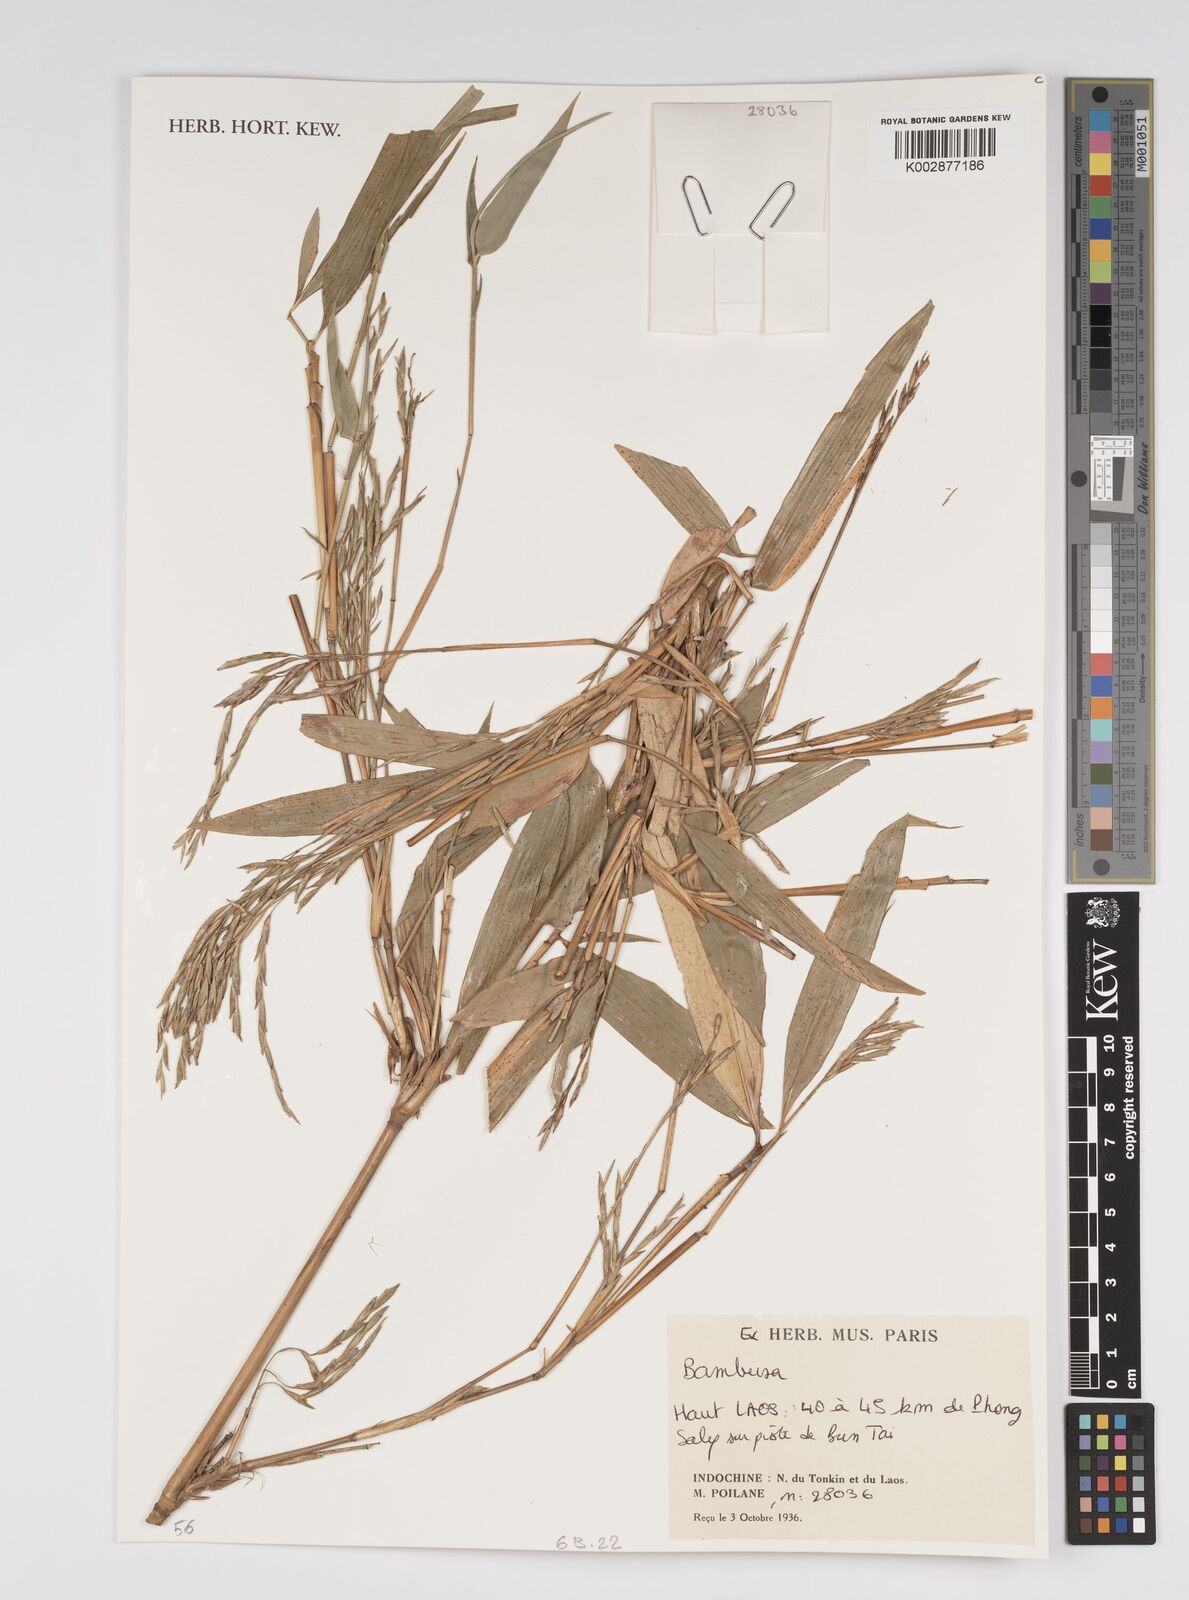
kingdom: Plantae
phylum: Tracheophyta
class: Liliopsida
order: Poales
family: Poaceae
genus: Bambusa
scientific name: Bambusa
